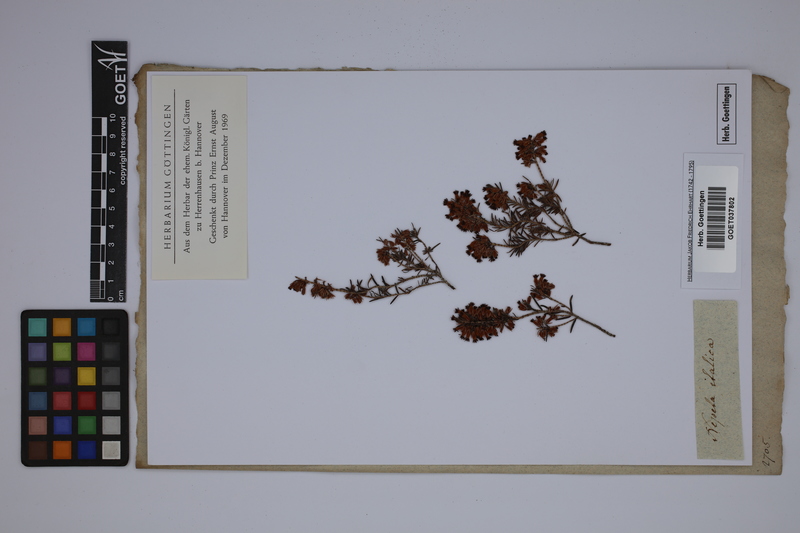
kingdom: Plantae
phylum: Tracheophyta
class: Magnoliopsida
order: Ericales
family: Ericaceae
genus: Erica
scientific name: Erica carnea
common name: Winter heath
